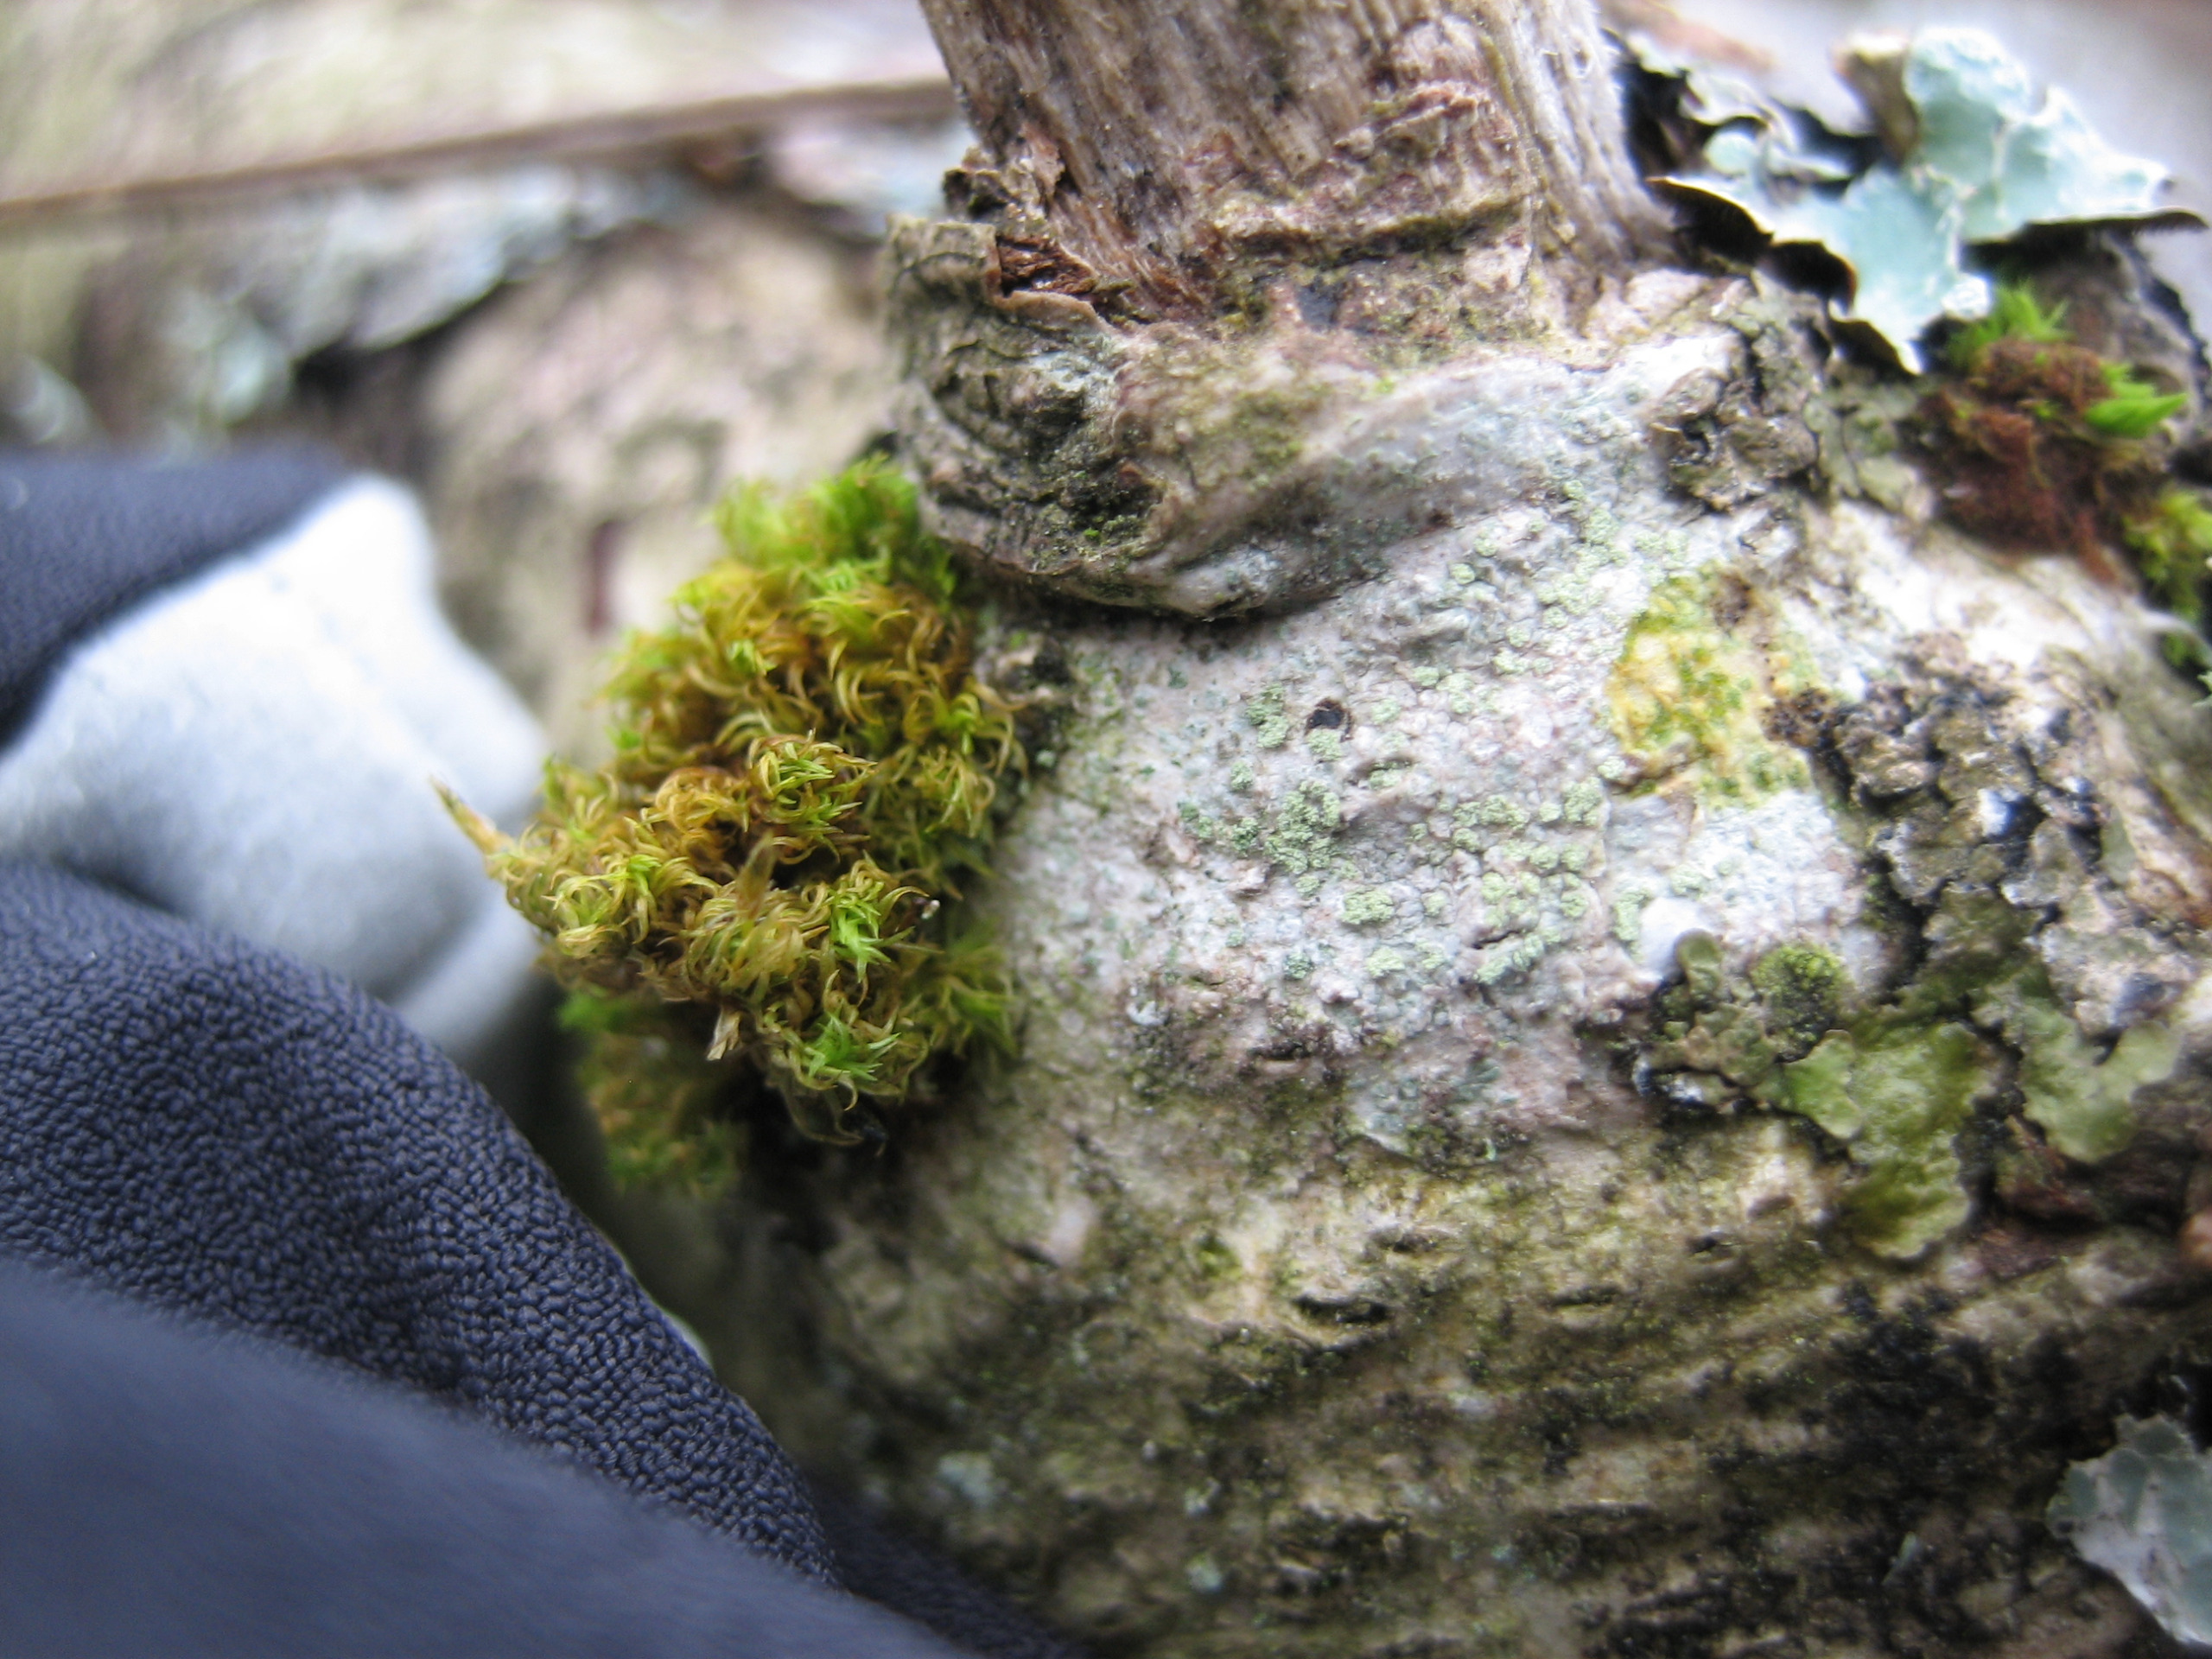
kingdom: Fungi
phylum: Ascomycota
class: Lecanoromycetes
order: Caliciales
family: Caliciaceae
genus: Buellia
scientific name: Buellia griseovirens
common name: Grågrøn sortskivelav
